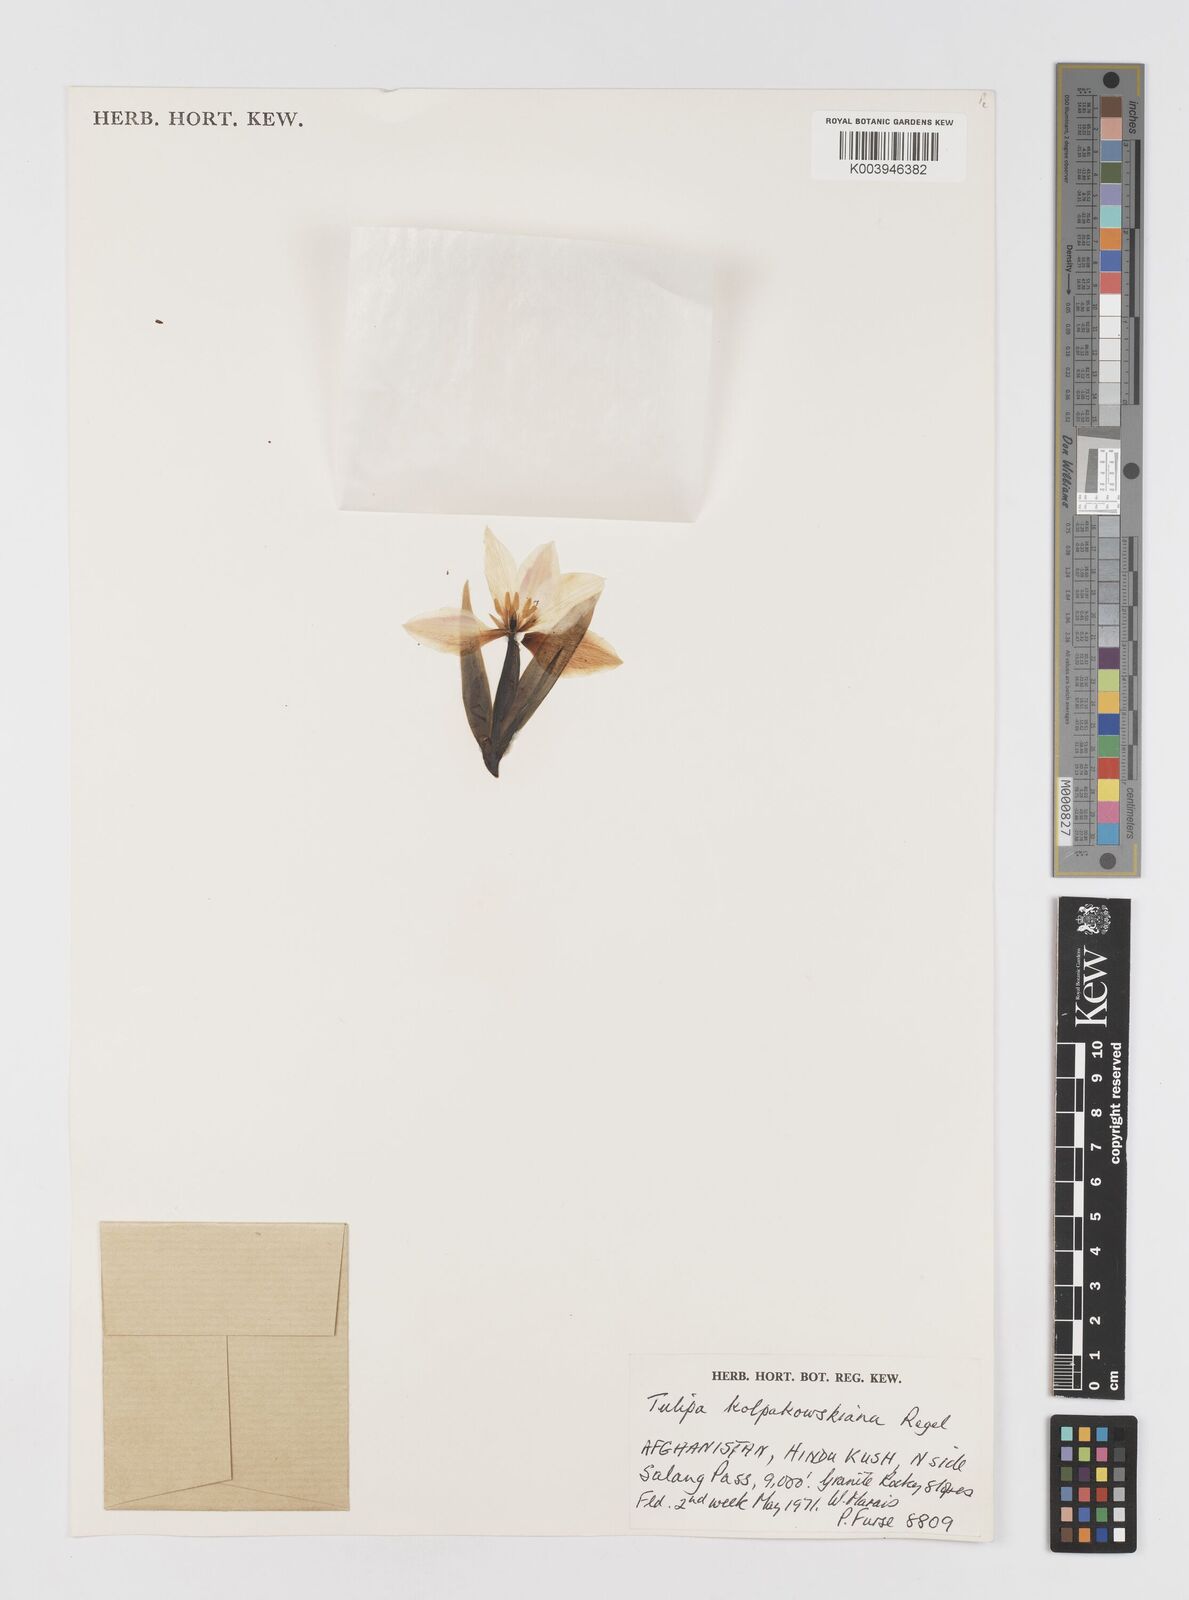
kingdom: Plantae
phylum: Tracheophyta
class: Liliopsida
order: Liliales
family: Liliaceae
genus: Tulipa
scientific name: Tulipa kolpakowskiana
